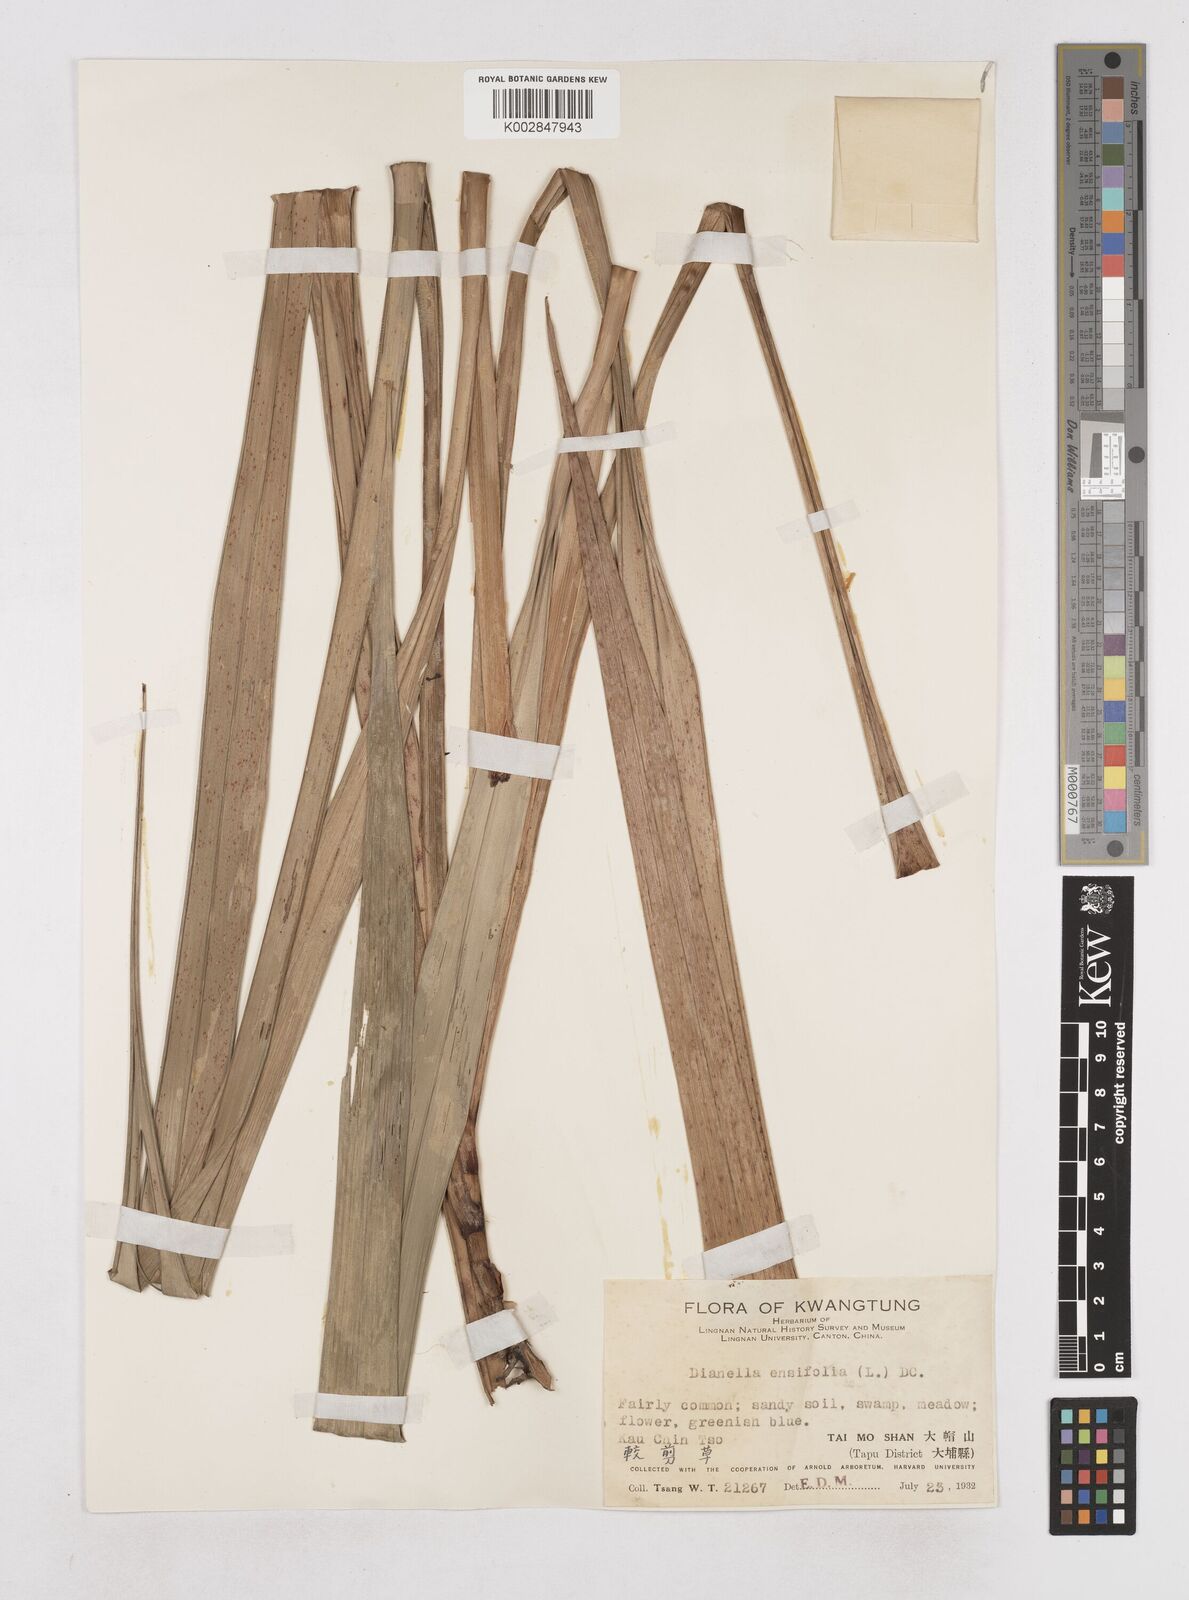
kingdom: Plantae
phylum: Tracheophyta
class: Liliopsida
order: Asparagales
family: Asphodelaceae
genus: Dianella
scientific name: Dianella ensifolia
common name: New zealand lilyplant
